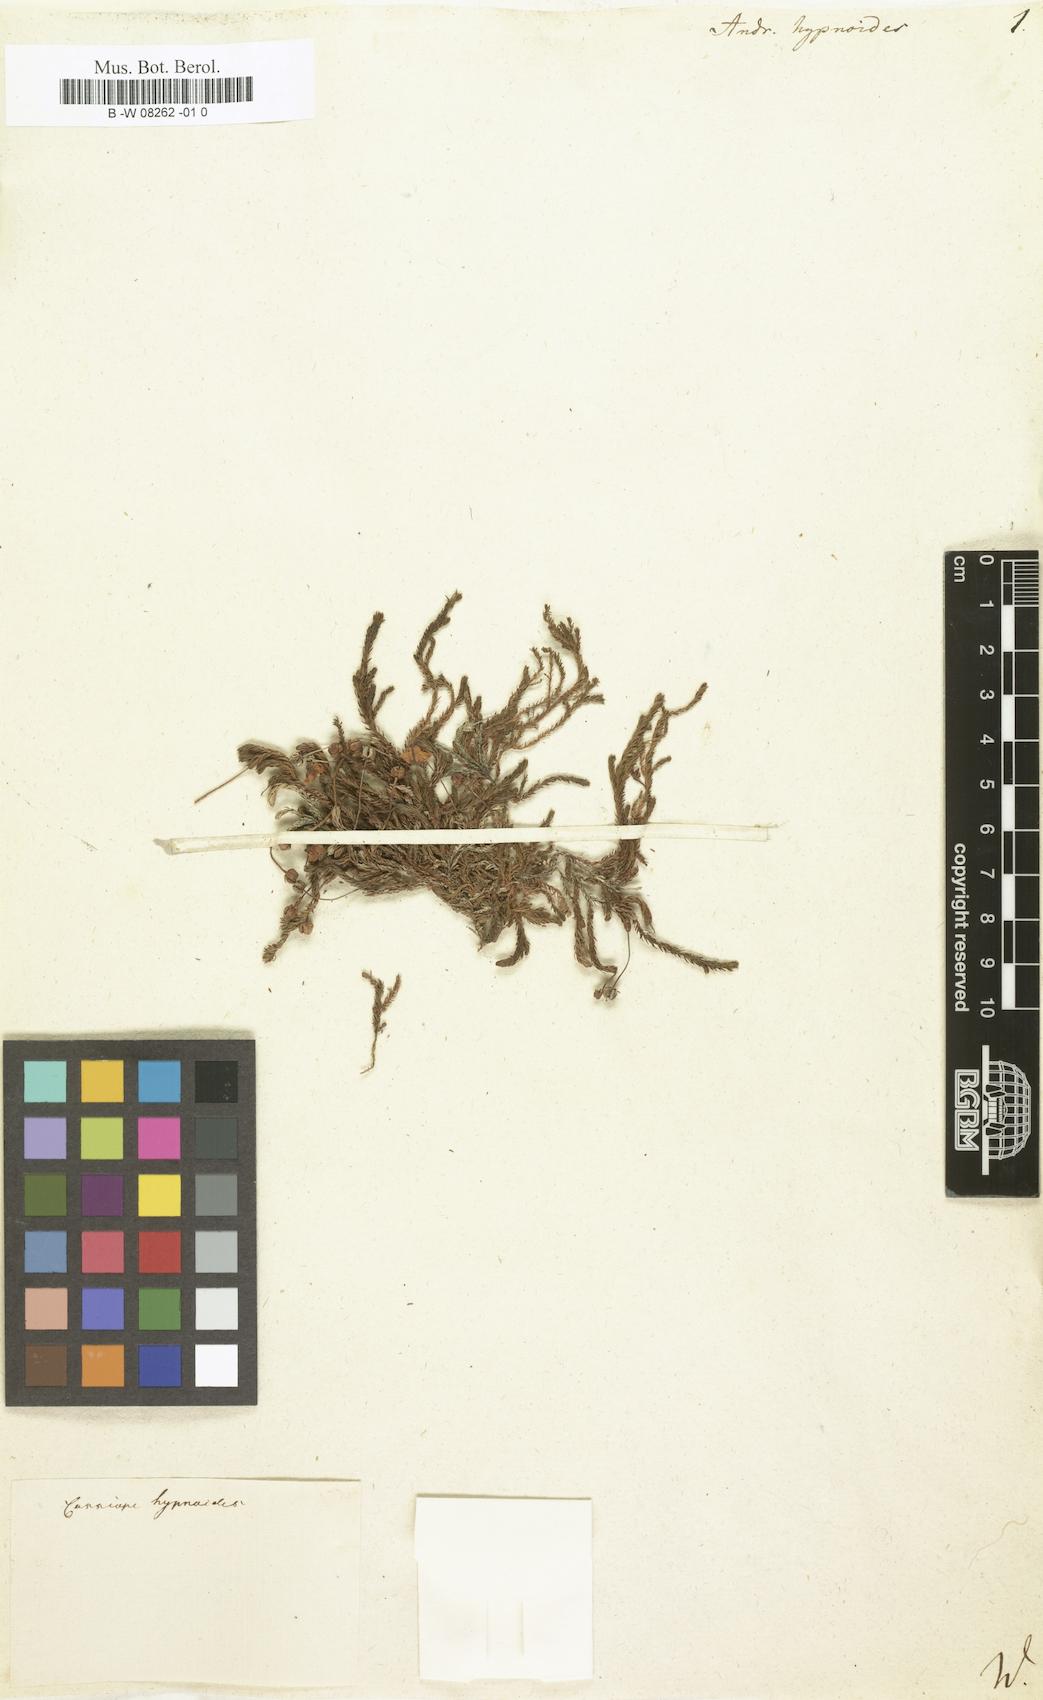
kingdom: Plantae
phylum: Tracheophyta
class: Magnoliopsida
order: Ericales
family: Ericaceae
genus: Harrimanella
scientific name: Harrimanella hypnoides
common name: Moss bell heather
